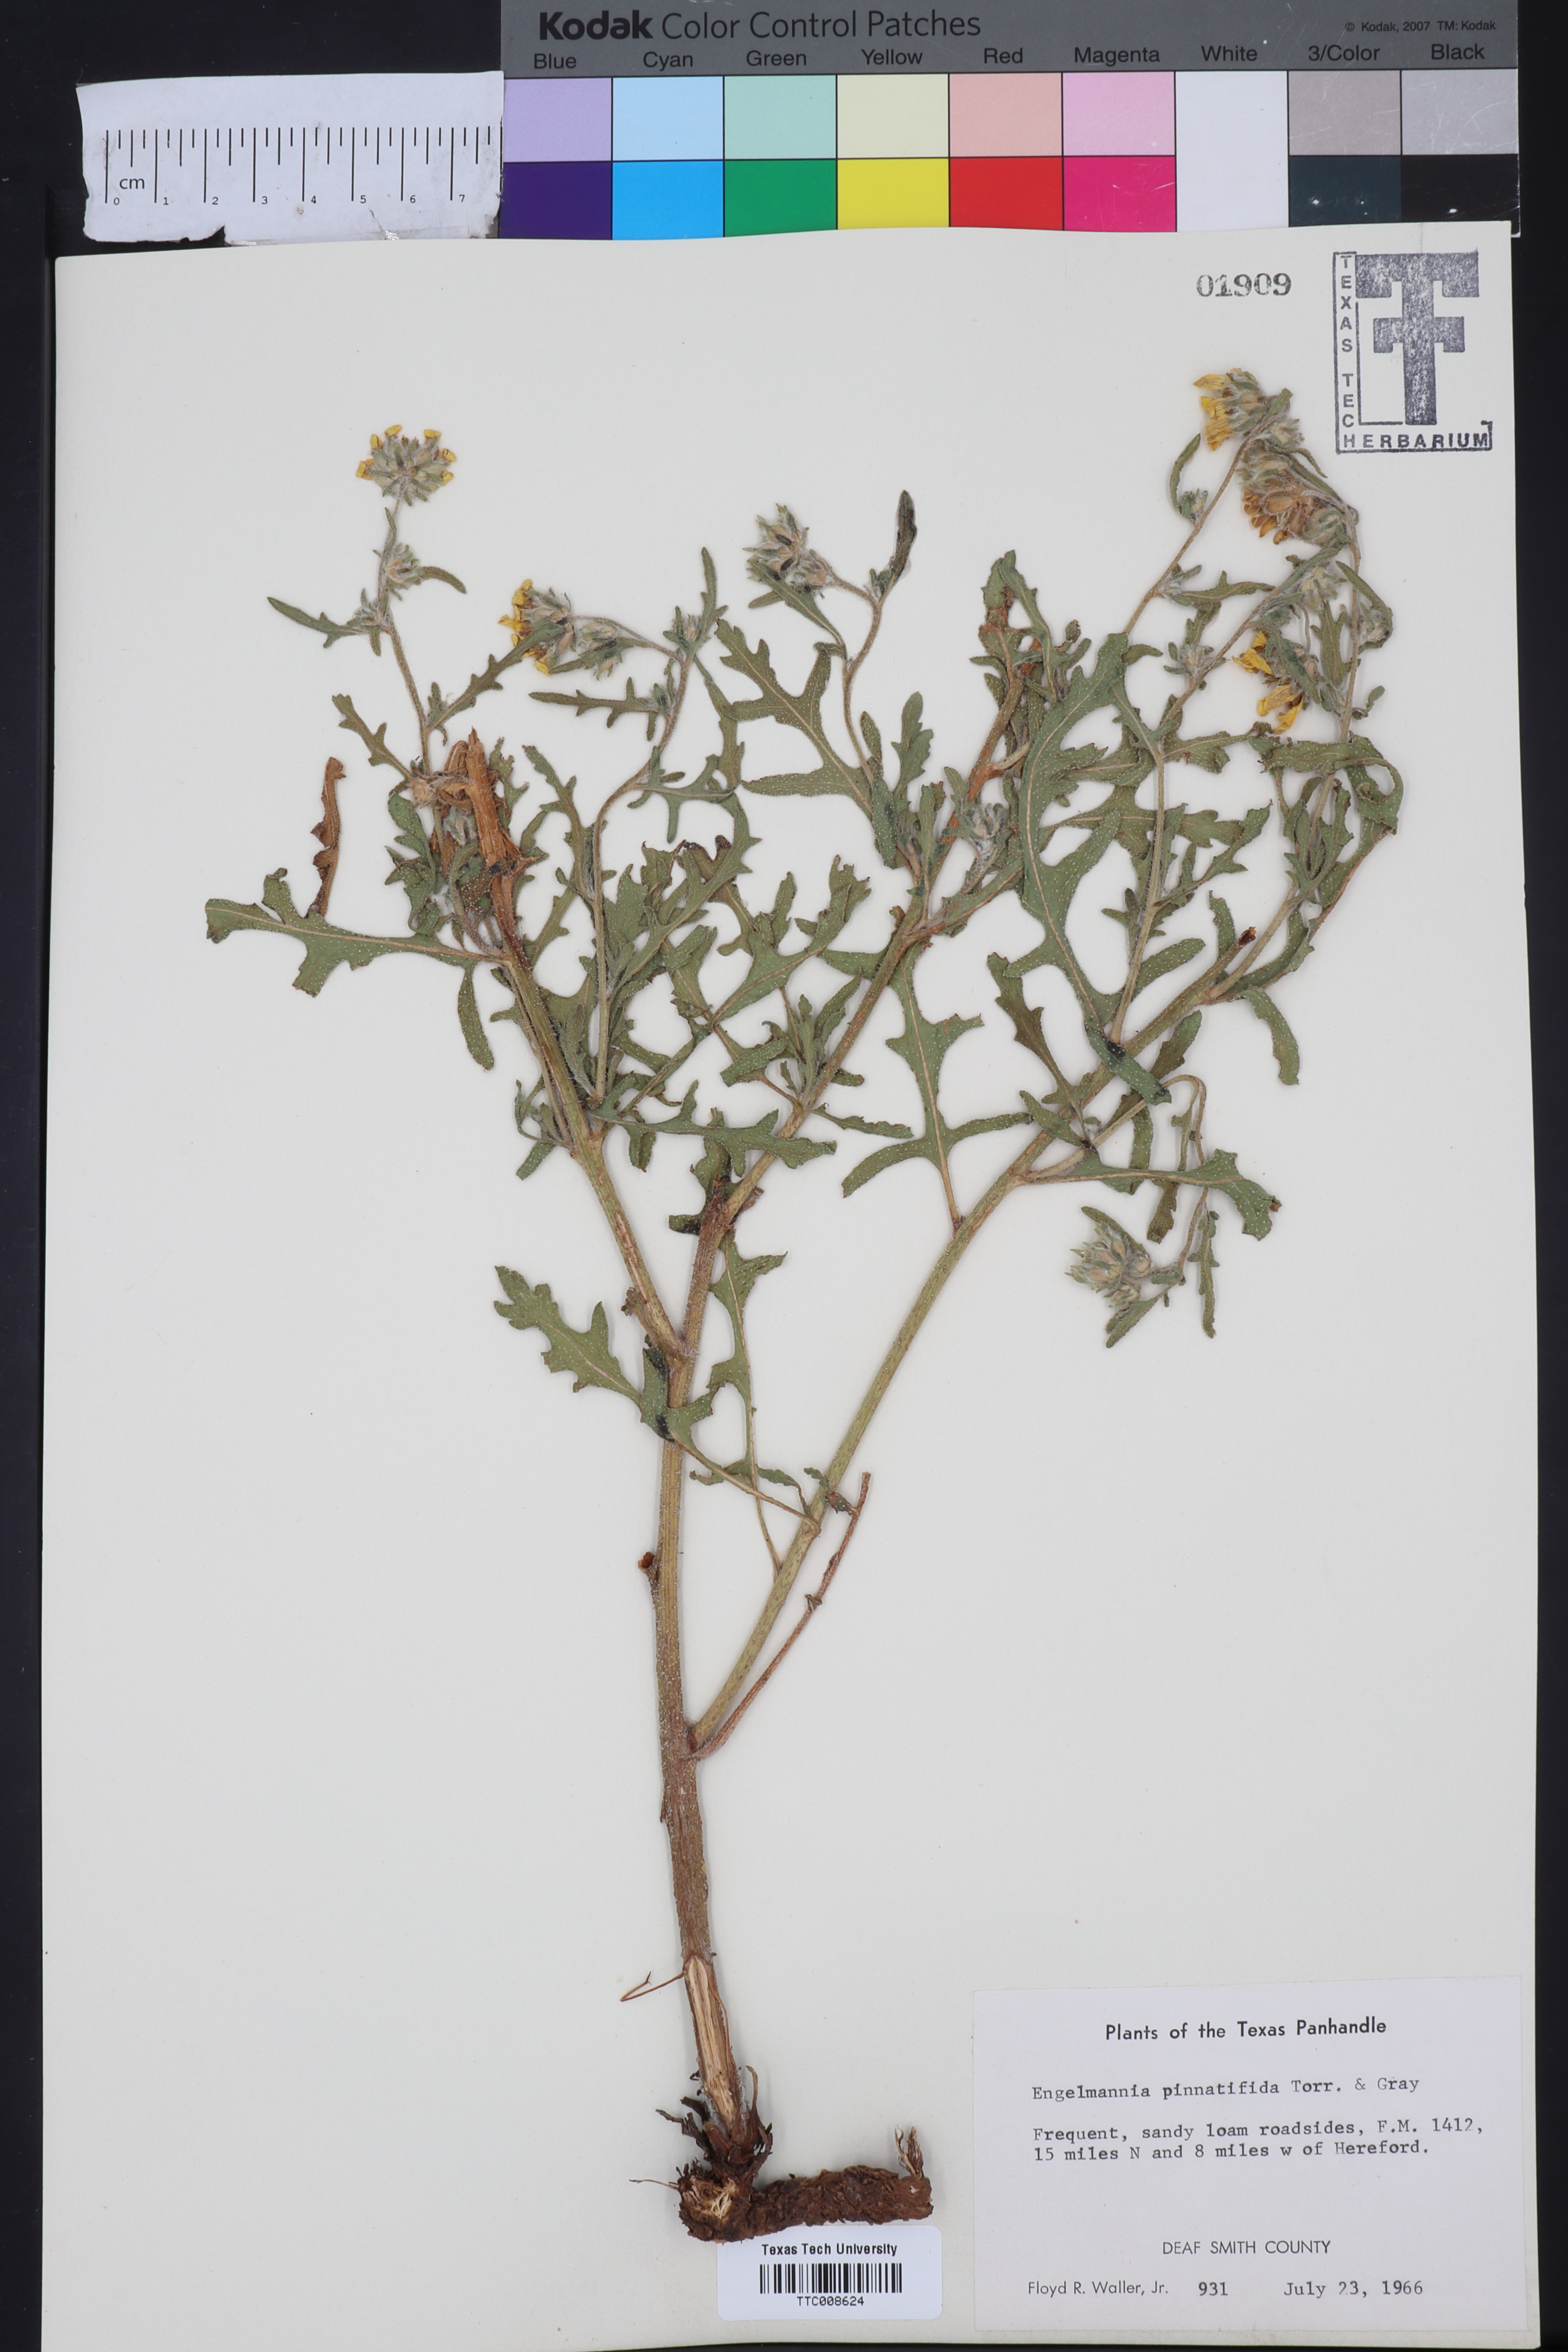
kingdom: Plantae
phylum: Tracheophyta
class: Magnoliopsida
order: Asterales
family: Asteraceae
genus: Engelmannia
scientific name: Engelmannia peristenia
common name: Engelmann's daisy
